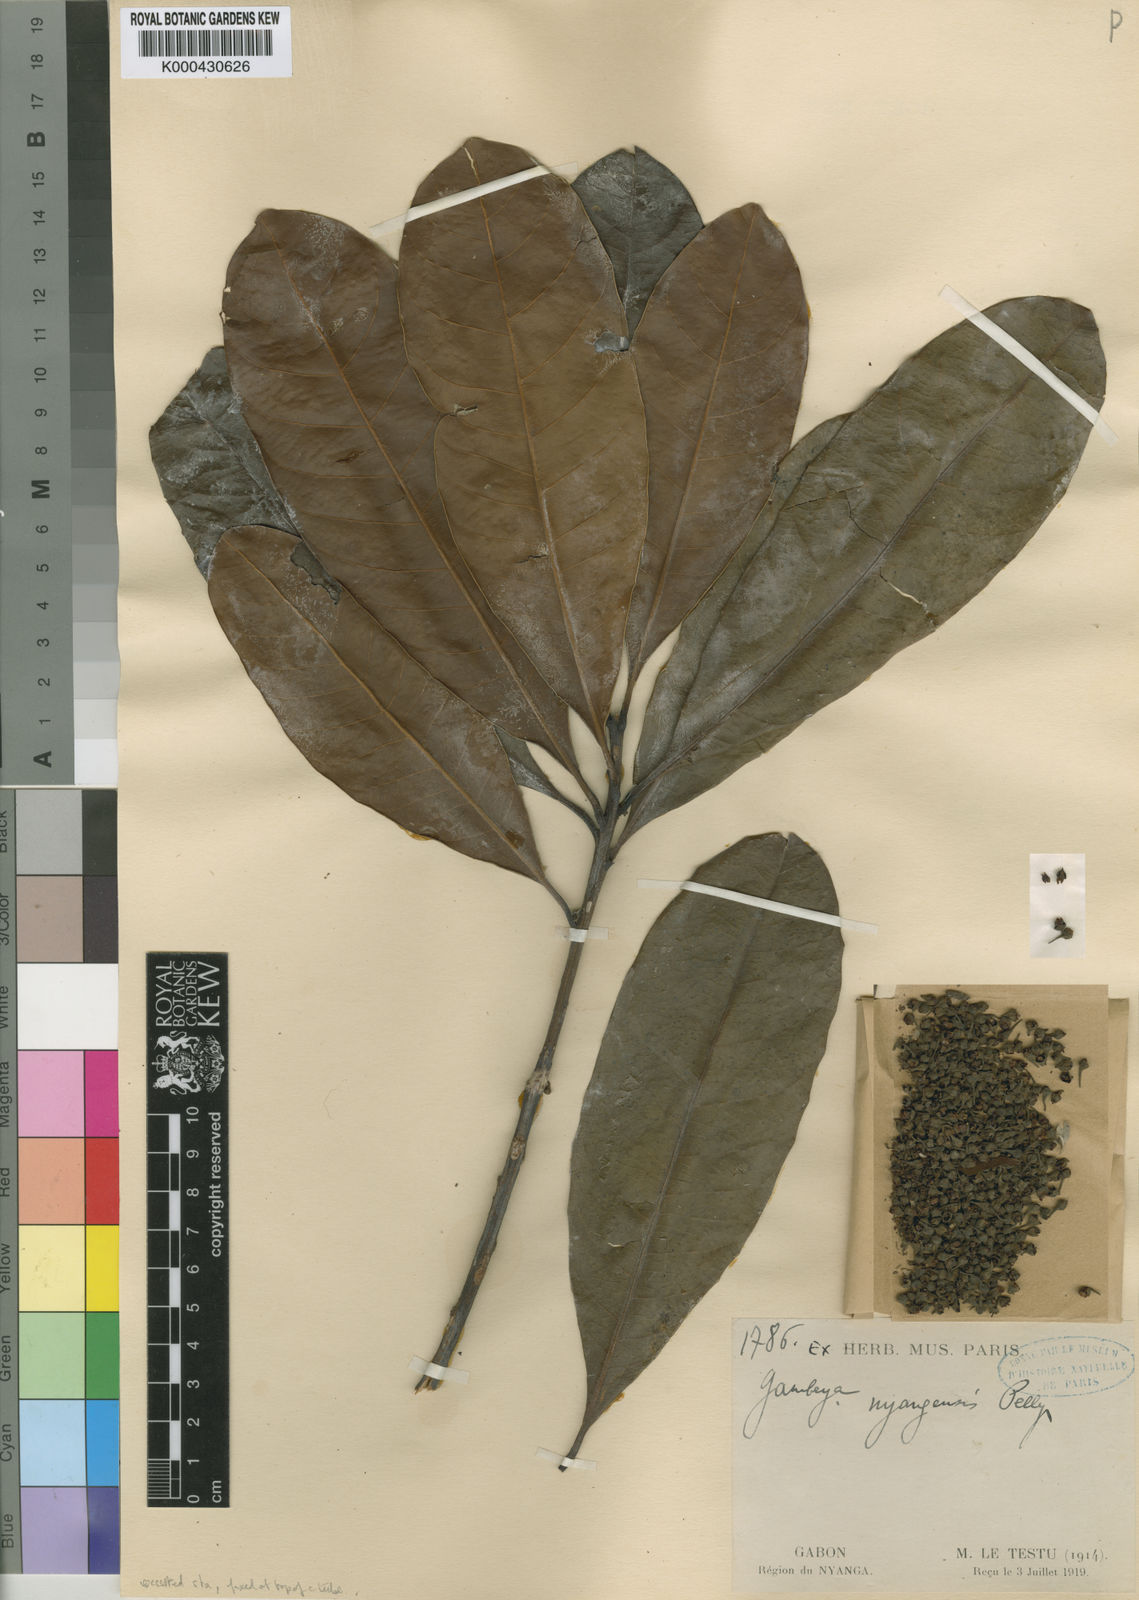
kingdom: Plantae
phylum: Tracheophyta
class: Magnoliopsida
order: Ericales
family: Sapotaceae
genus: Synsepalum
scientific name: Synsepalum nyangense
